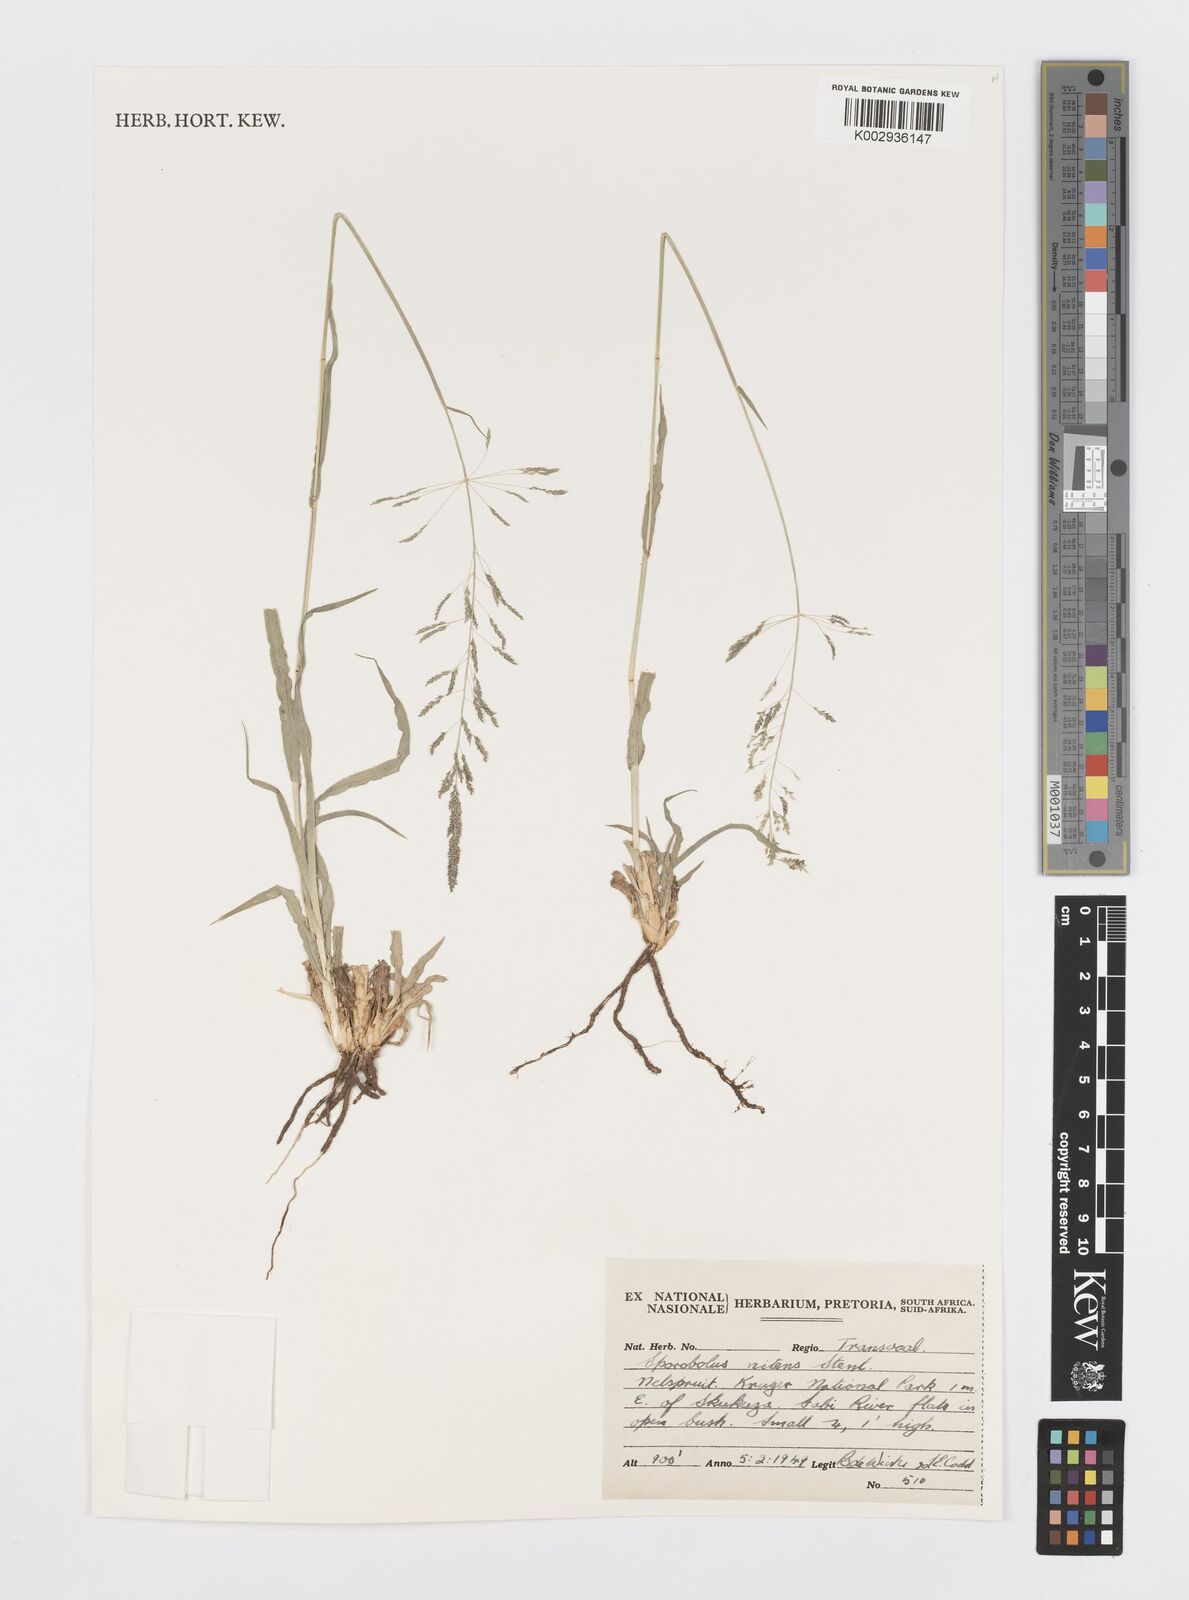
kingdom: Plantae
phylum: Tracheophyta
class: Liliopsida
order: Poales
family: Poaceae
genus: Sporobolus
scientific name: Sporobolus nitens
